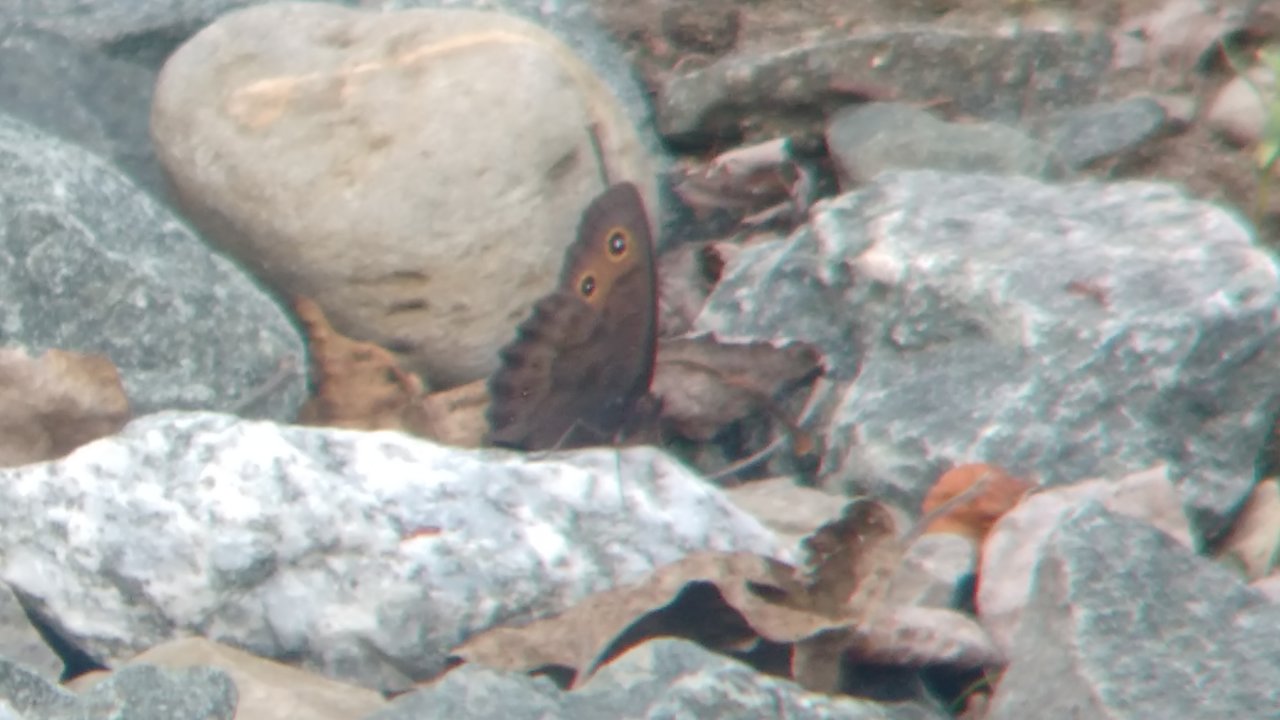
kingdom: Animalia
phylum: Arthropoda
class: Insecta
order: Lepidoptera
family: Nymphalidae
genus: Cercyonis
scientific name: Cercyonis pegala
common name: Common Wood-Nymph
